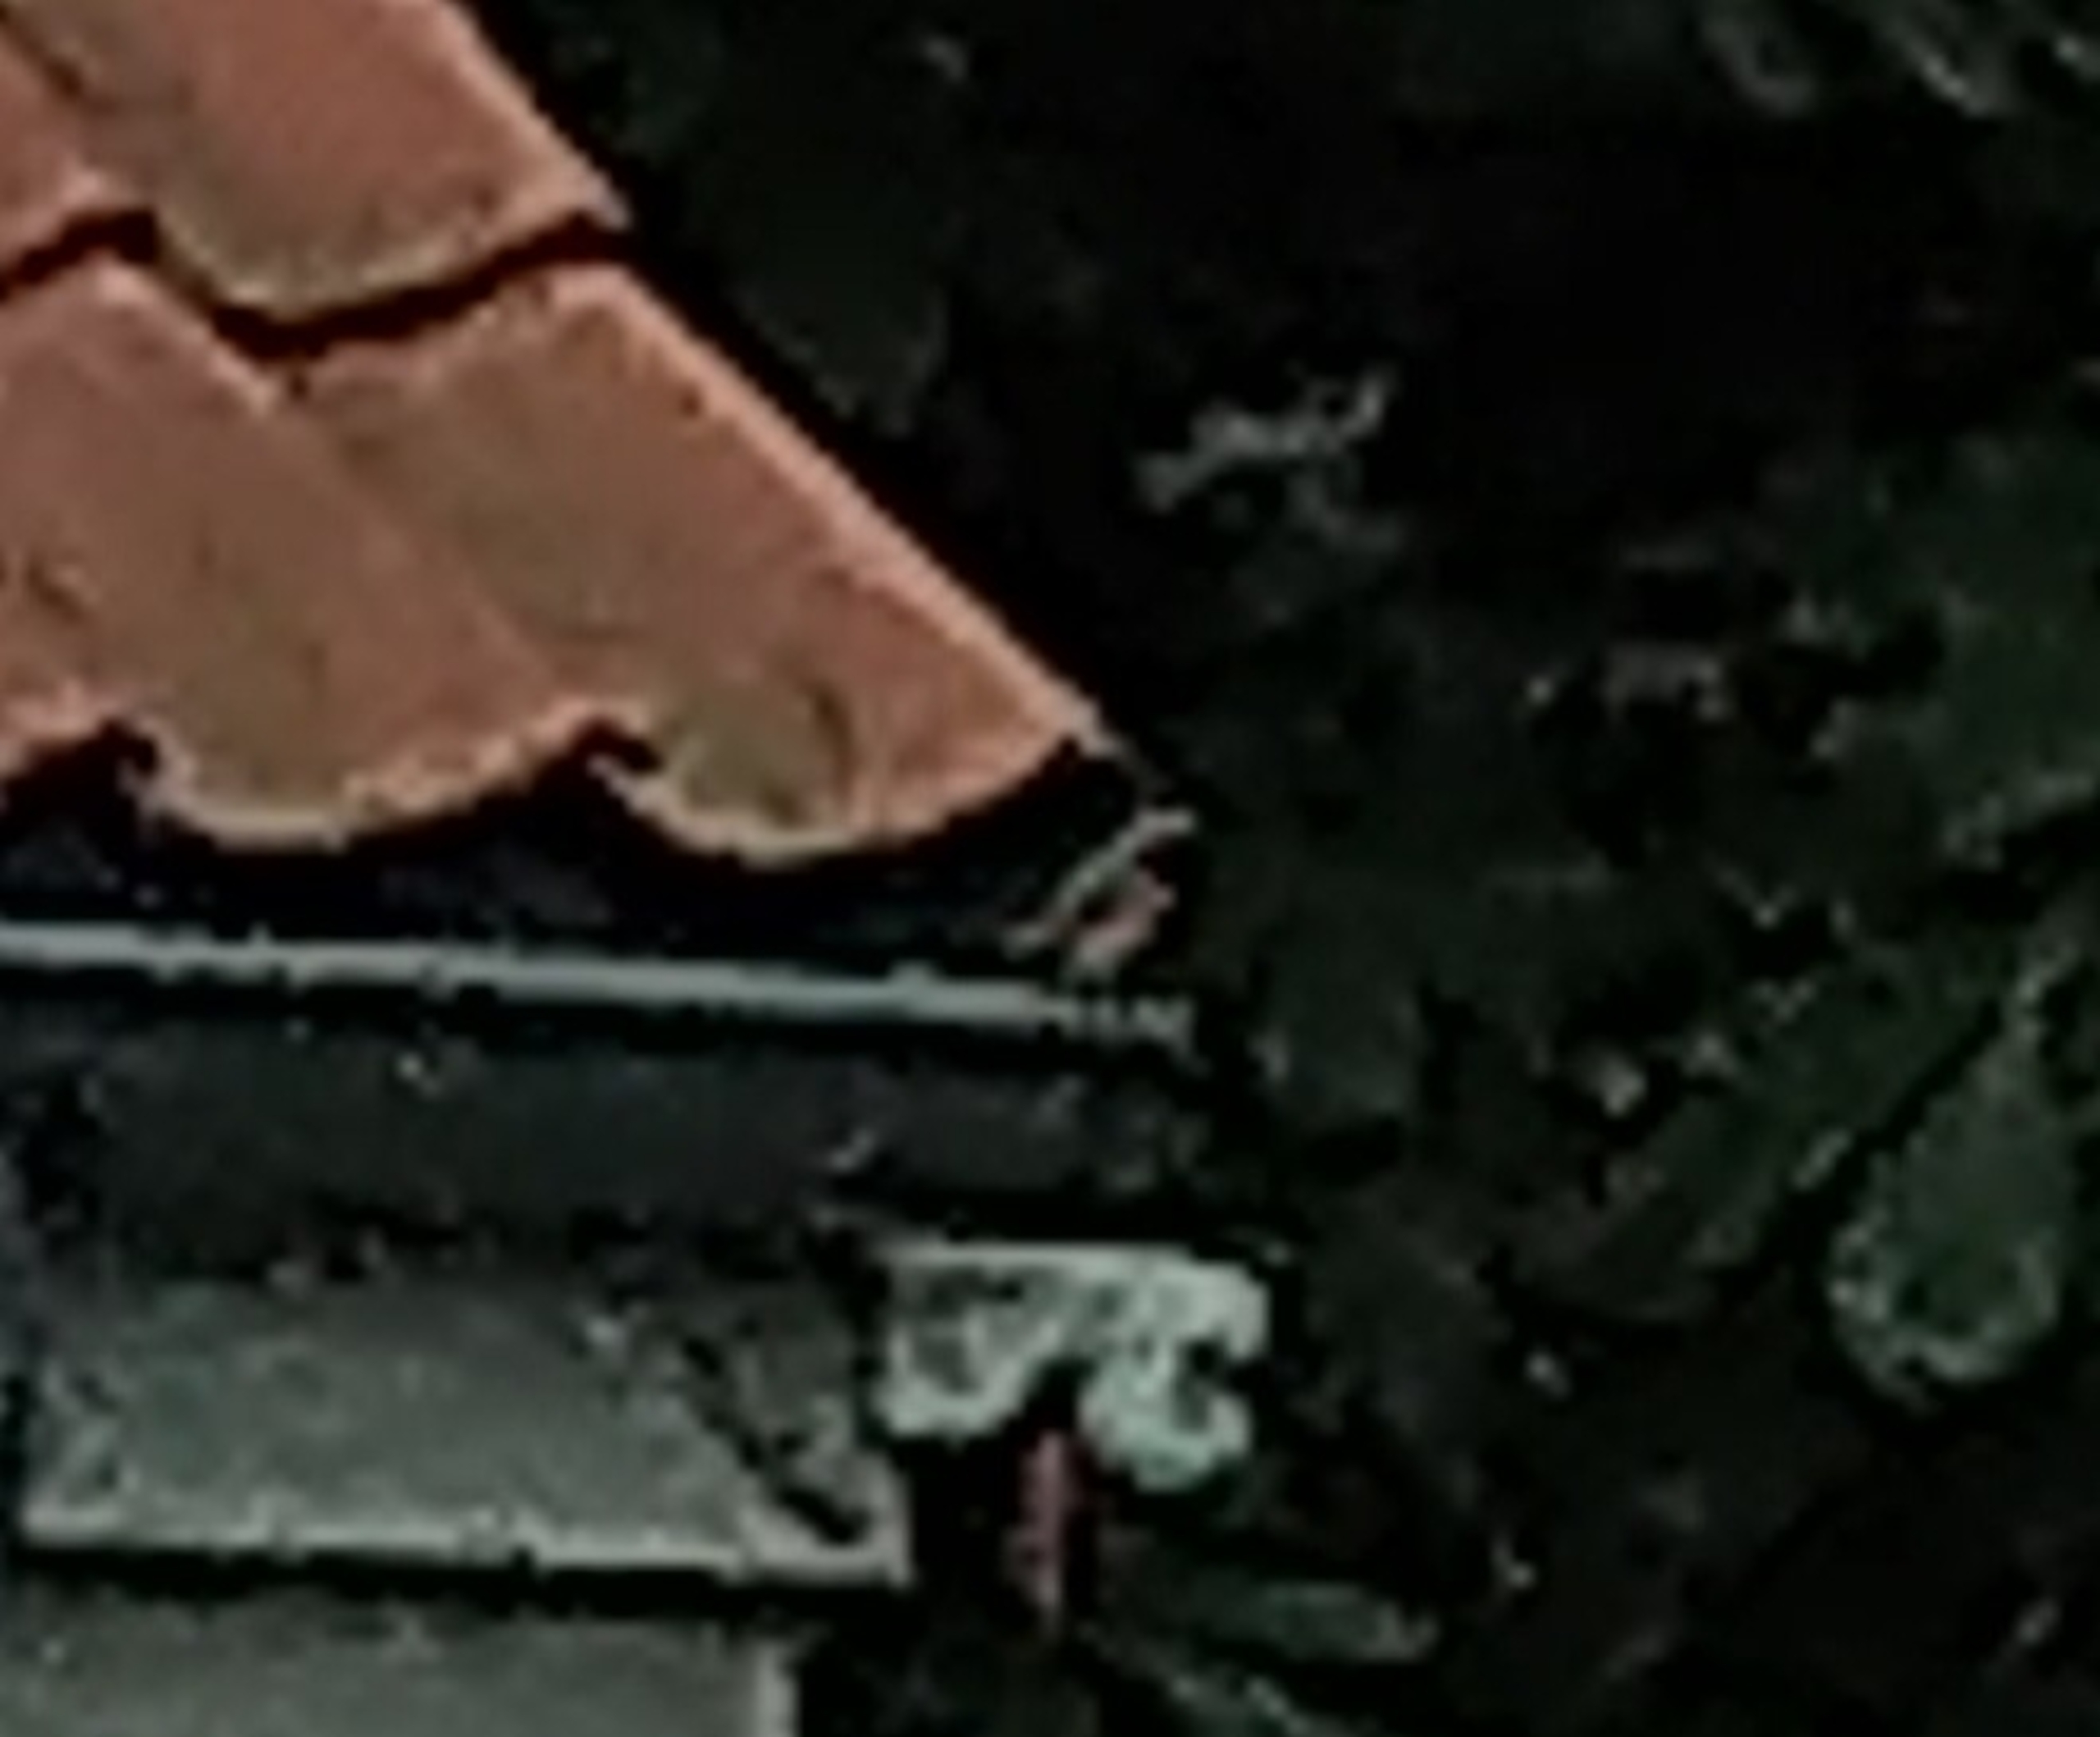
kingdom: Animalia
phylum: Chordata
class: Aves
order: Passeriformes
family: Muscicapidae
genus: Phoenicurus
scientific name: Phoenicurus phoenicurus
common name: Rødstjert
